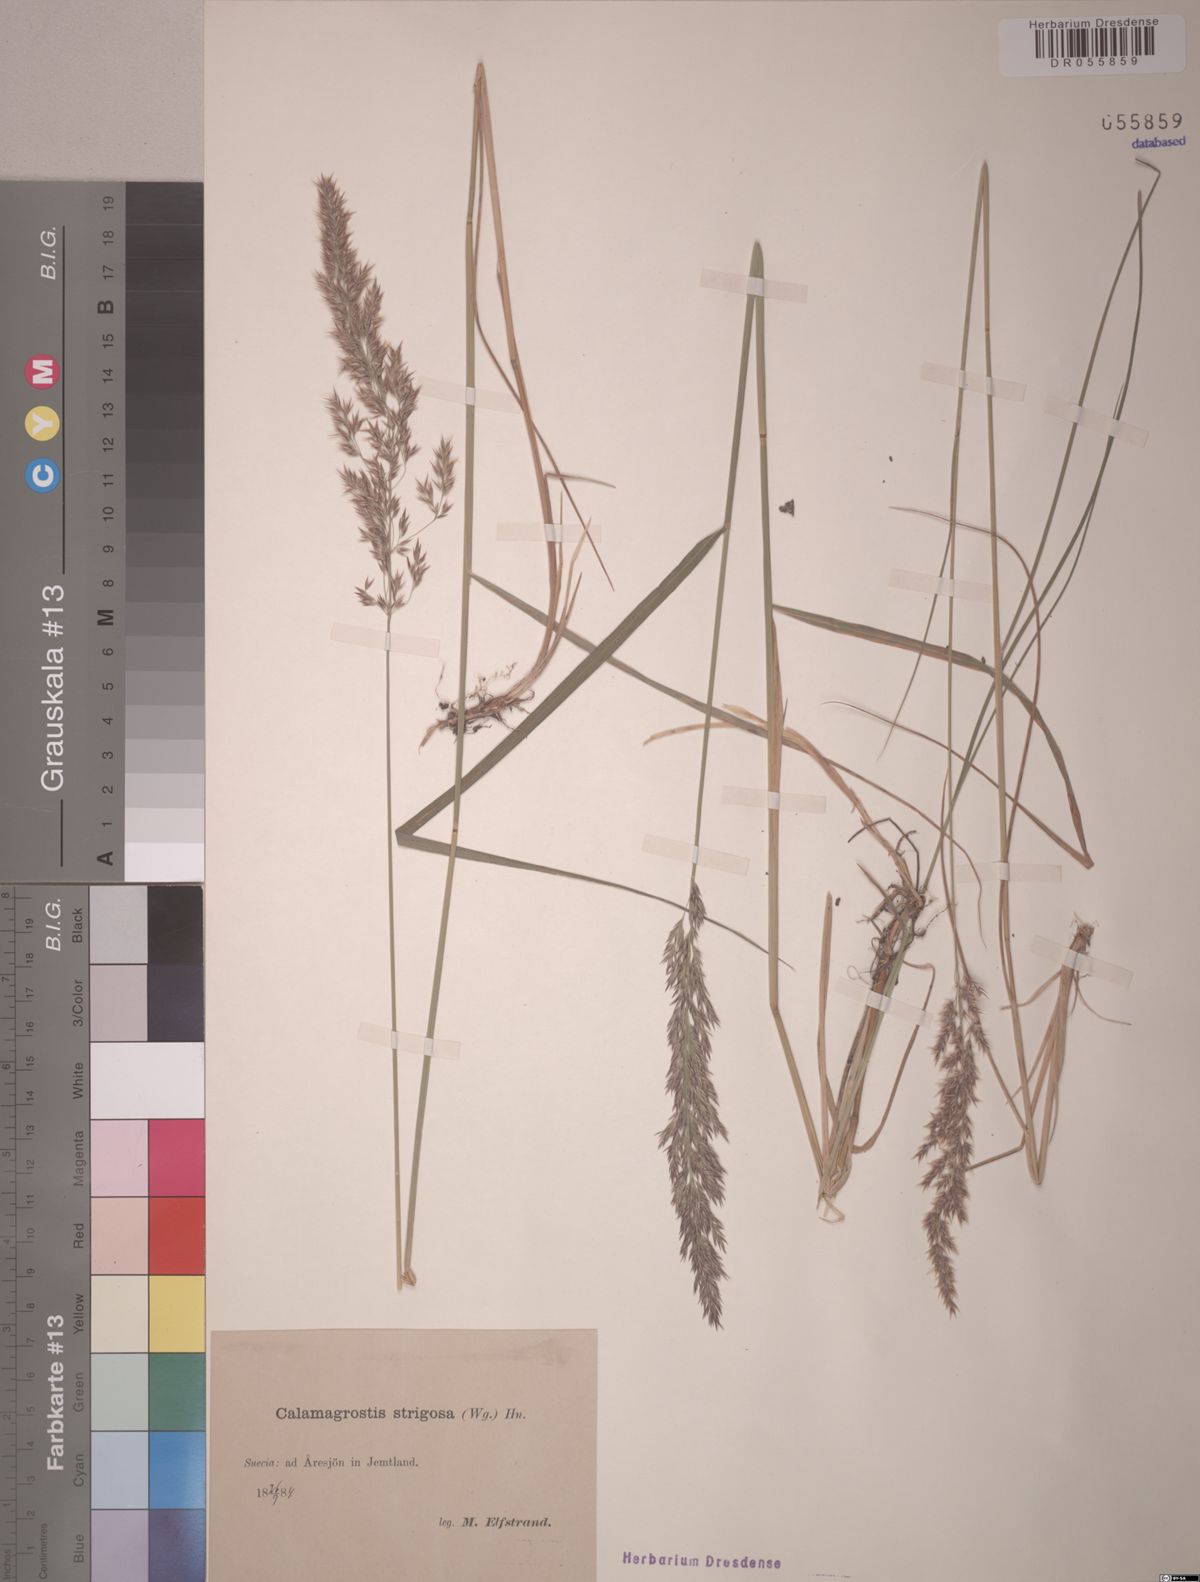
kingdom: Plantae
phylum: Tracheophyta
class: Liliopsida
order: Poales
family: Poaceae
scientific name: Poaceae
